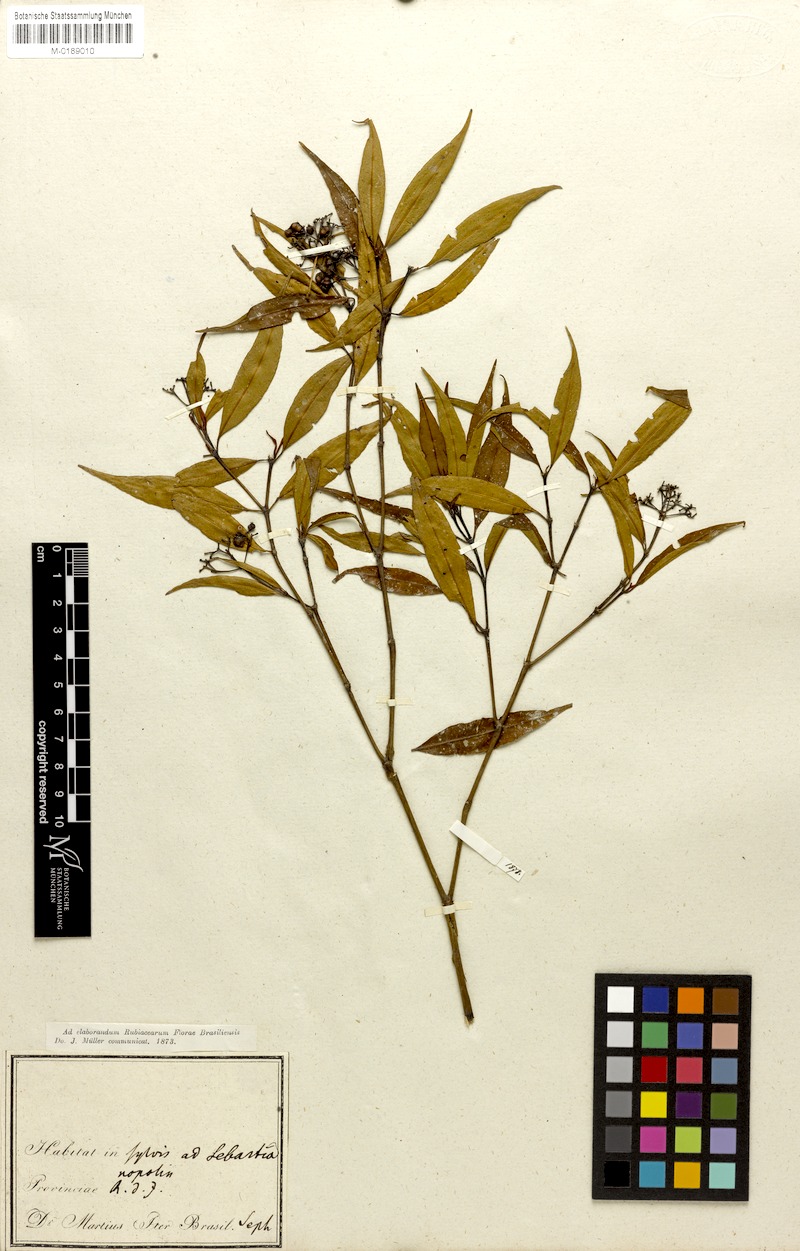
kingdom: Plantae
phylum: Tracheophyta
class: Magnoliopsida
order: Gentianales
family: Rubiaceae
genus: Psychotria
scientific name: Psychotria leiocarpa
